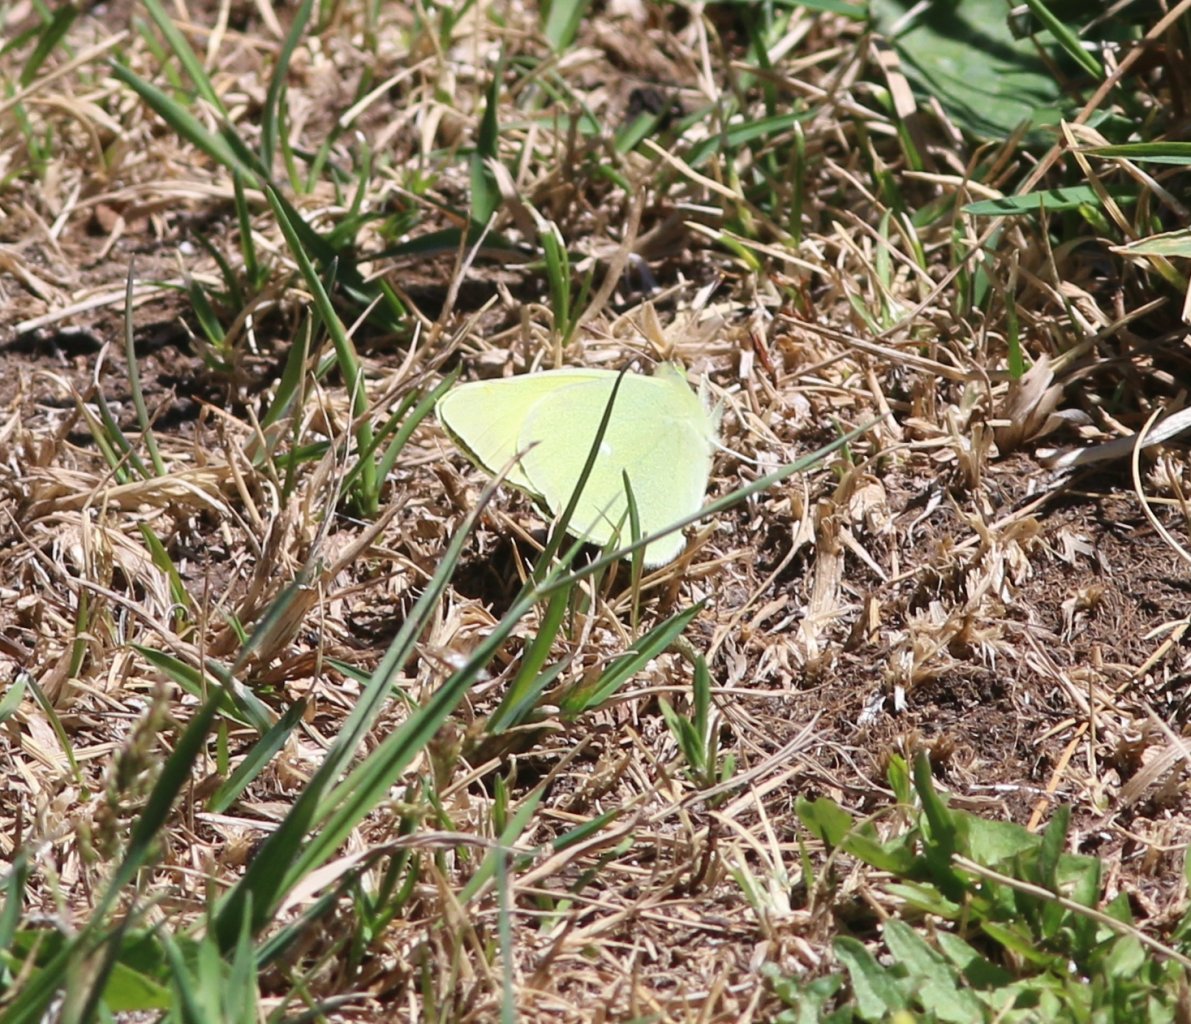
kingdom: Animalia
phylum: Arthropoda
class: Insecta
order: Lepidoptera
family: Pieridae
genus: Colias
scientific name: Colias alexandra
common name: Queen Alexandra's Sulphur
